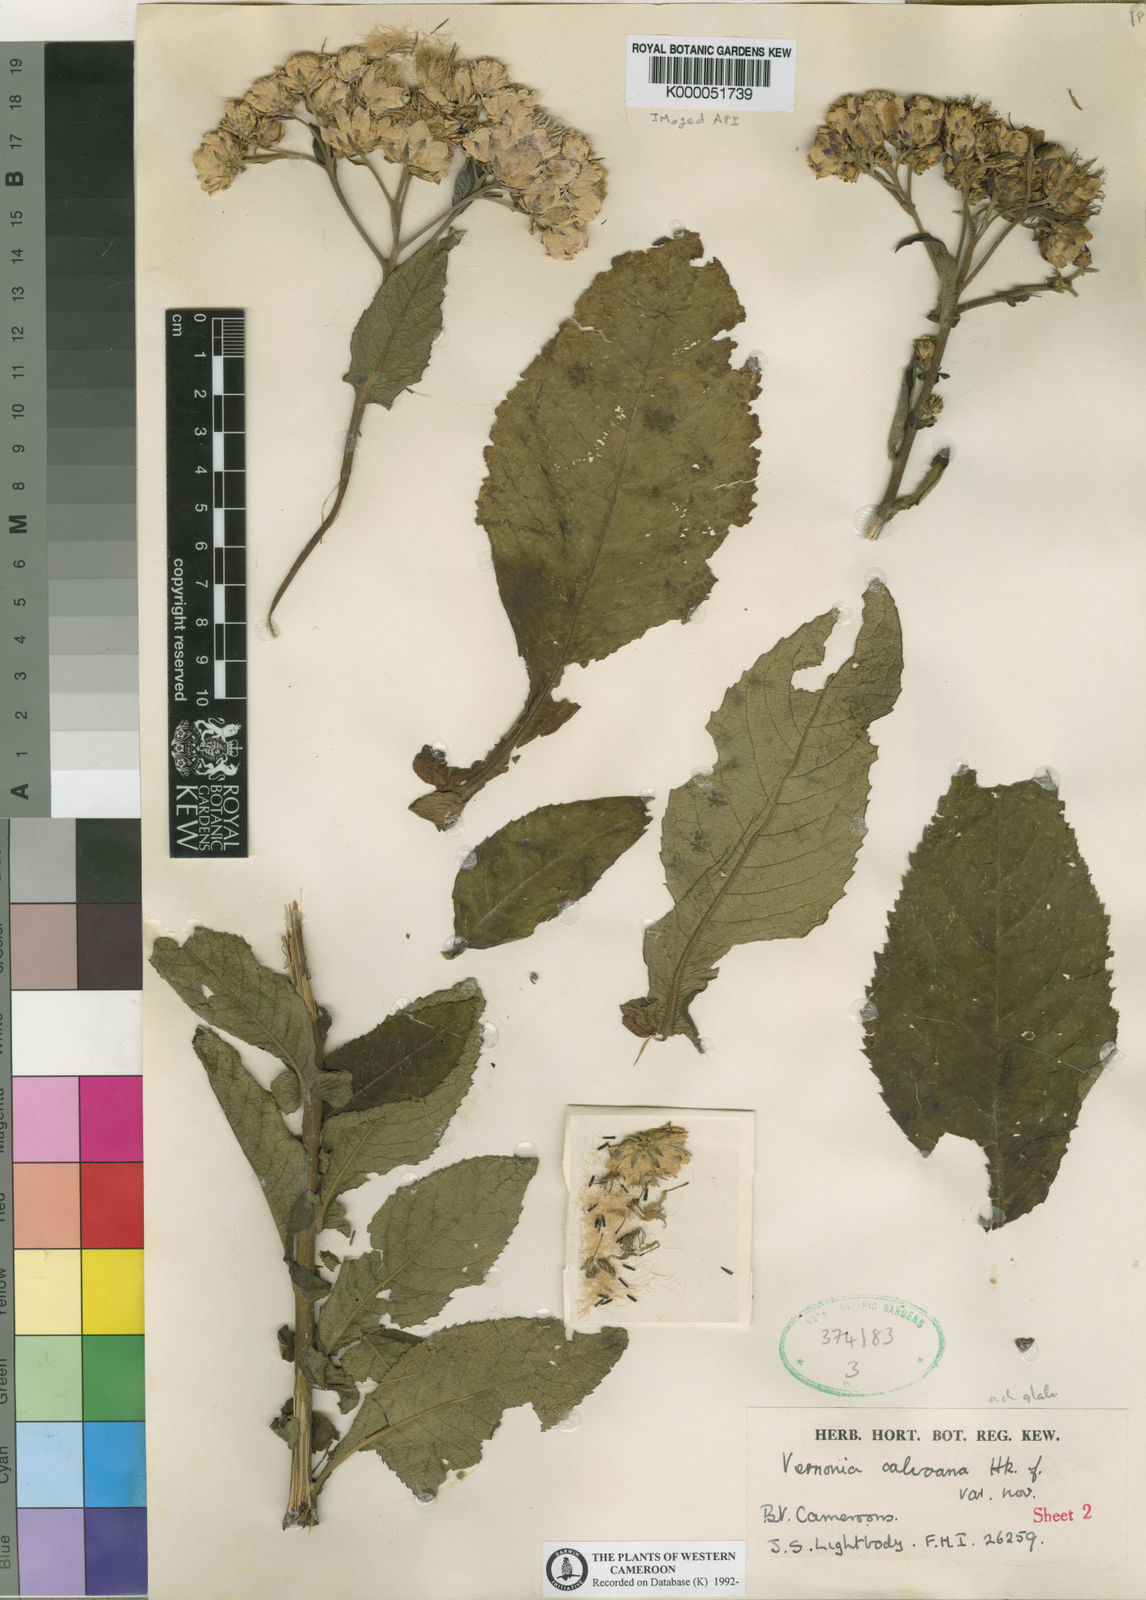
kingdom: Plantae
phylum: Tracheophyta
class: Magnoliopsida
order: Asterales
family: Asteraceae
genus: Baccharoides
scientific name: Baccharoides hymenolepis
